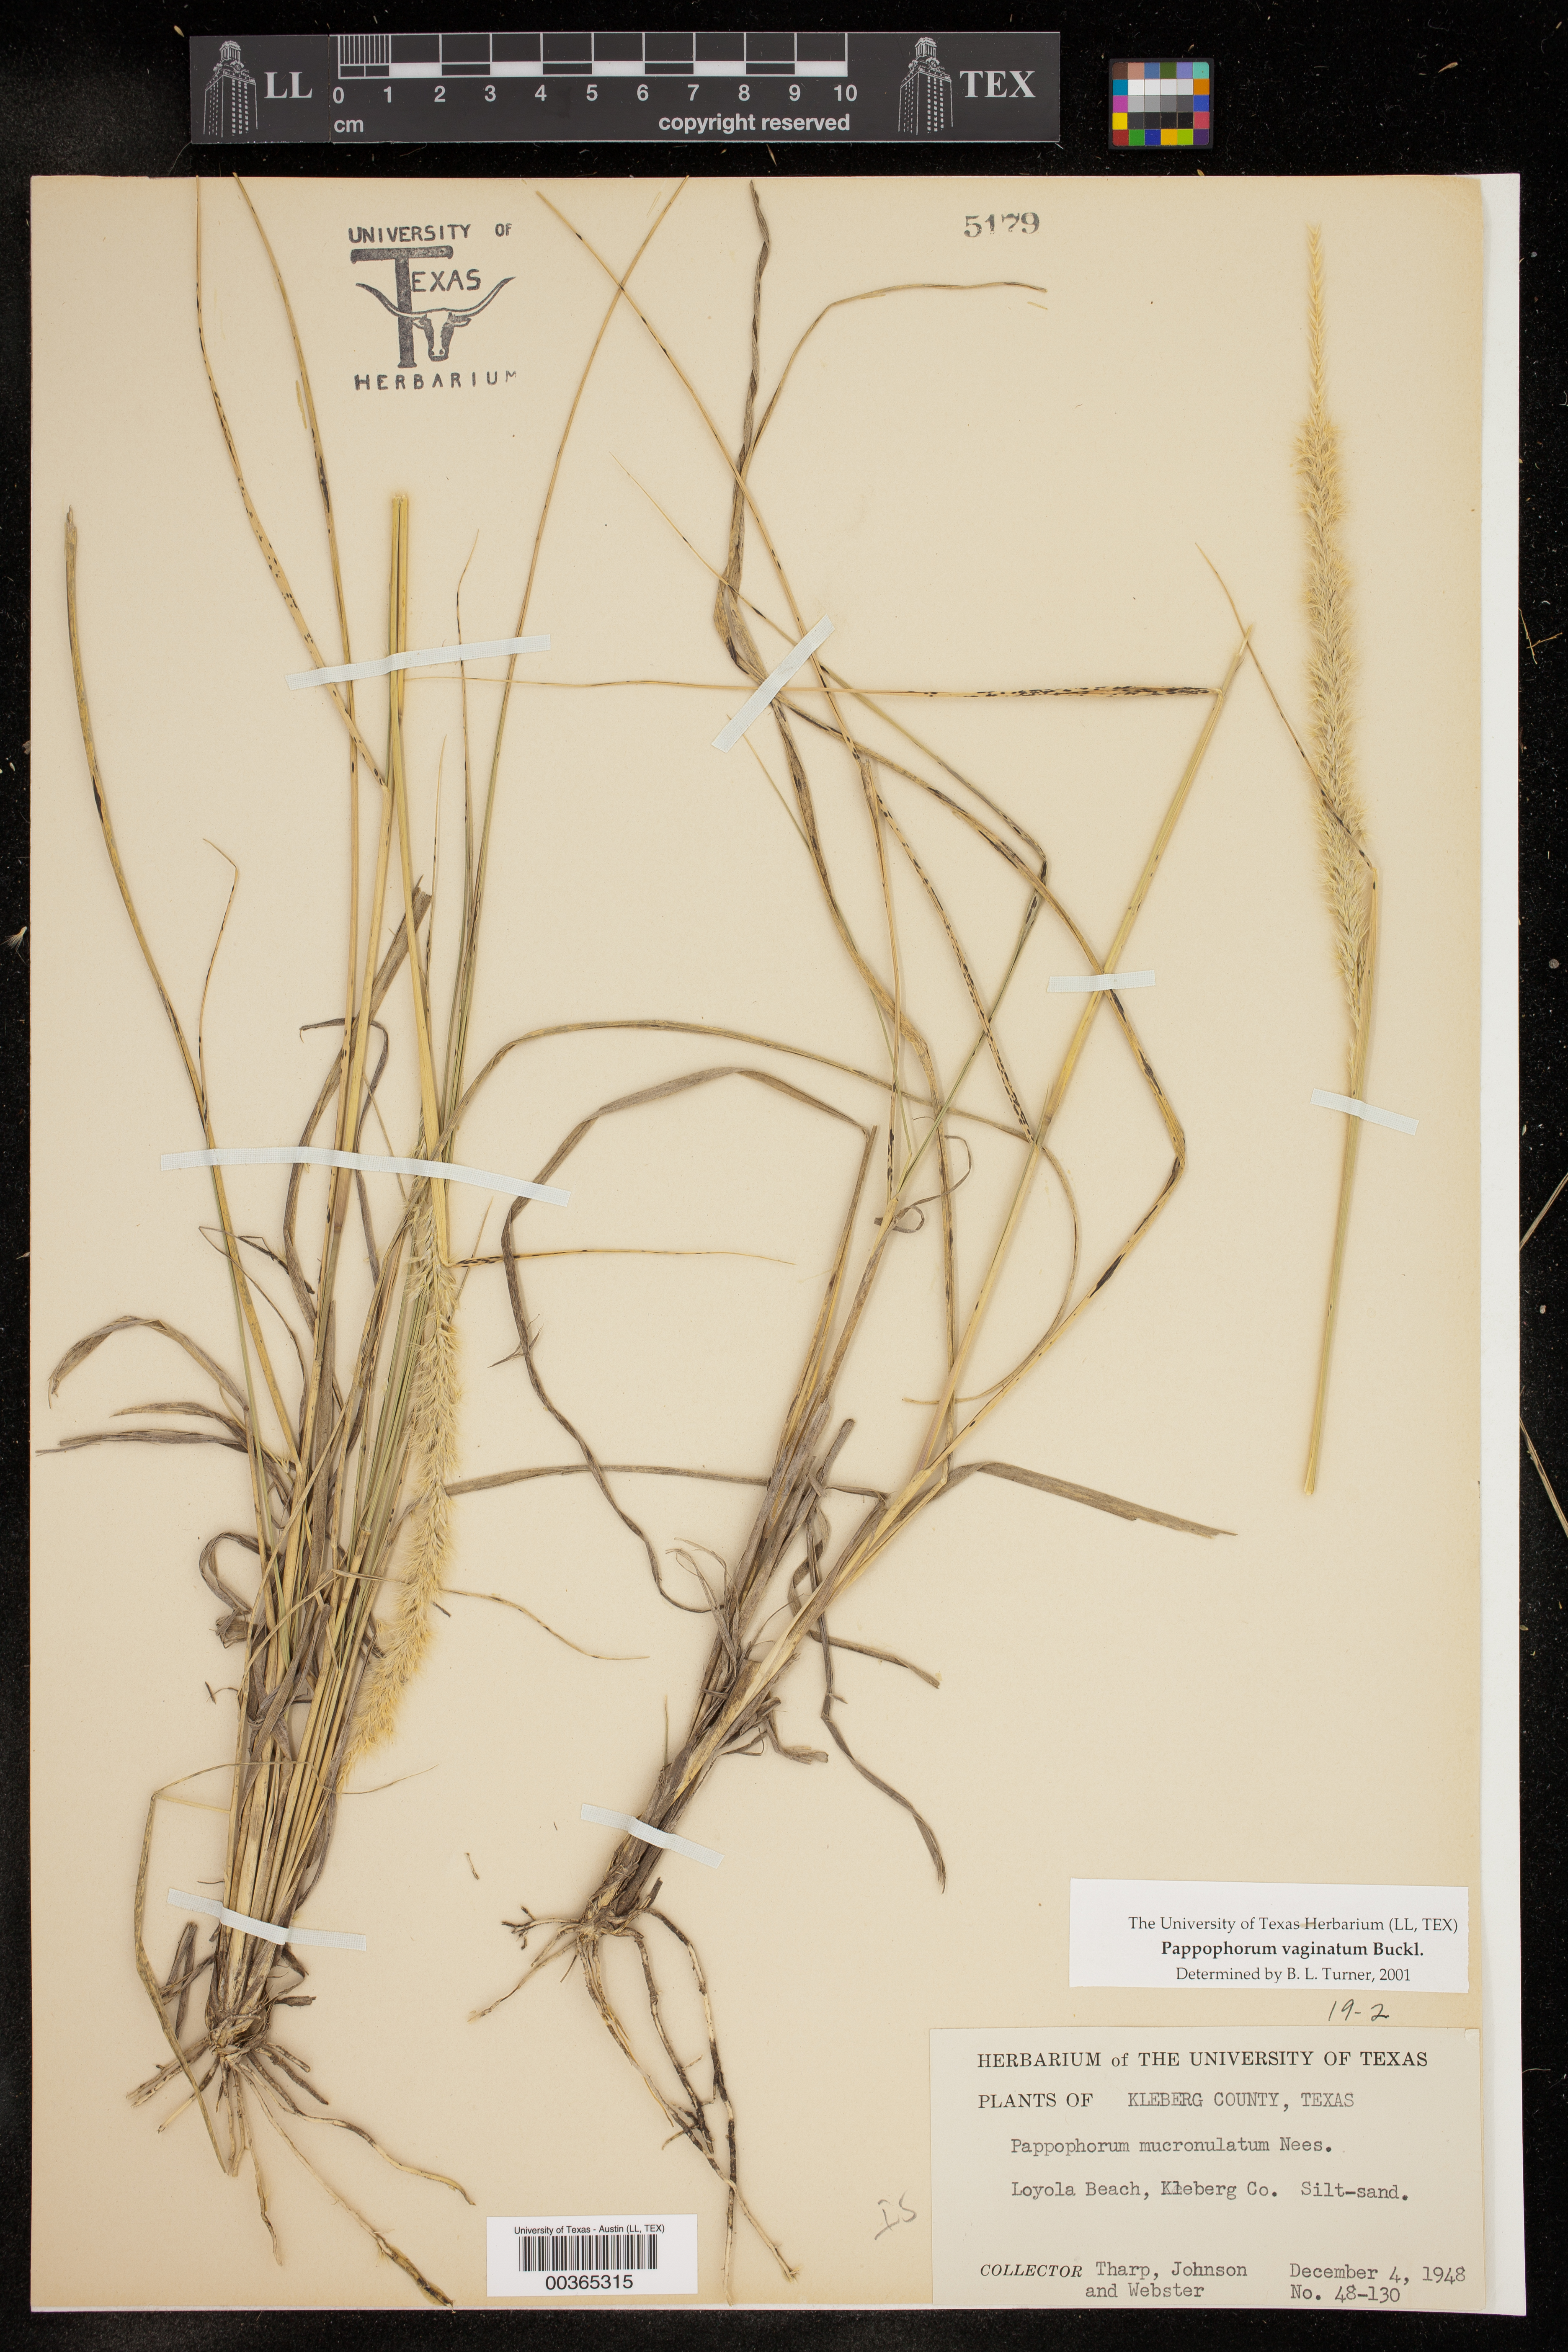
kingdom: Plantae
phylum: Tracheophyta
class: Liliopsida
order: Poales
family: Poaceae
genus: Pappophorum
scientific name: Pappophorum
